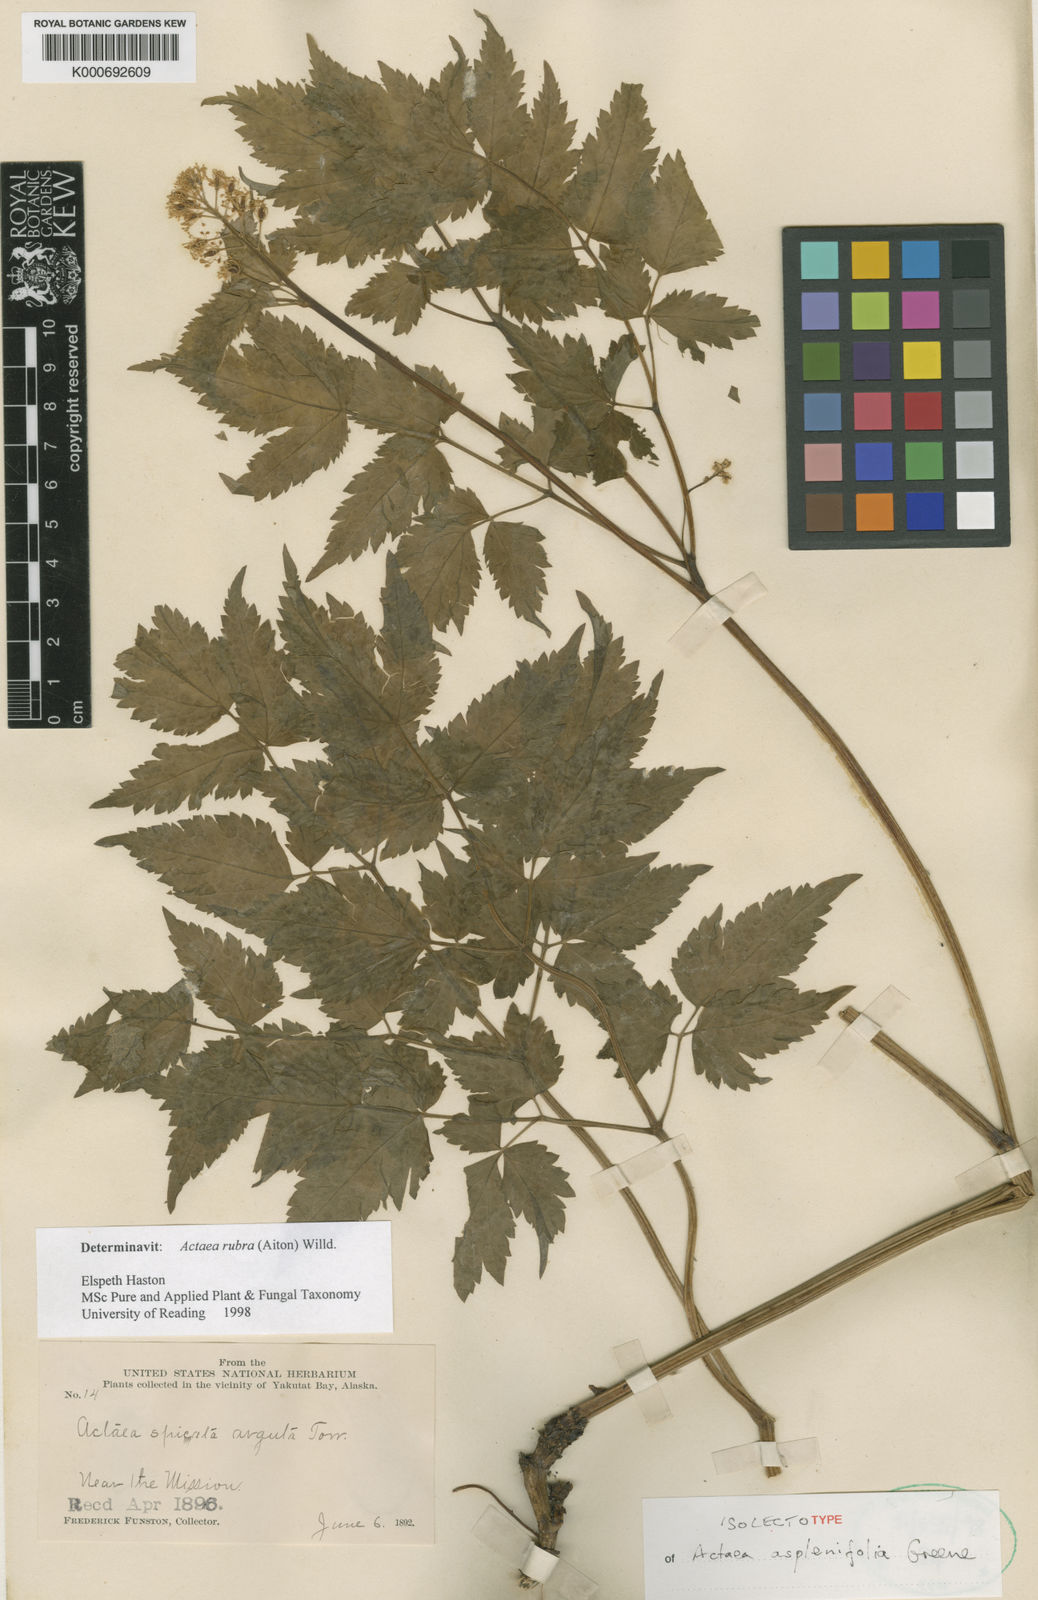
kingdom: Plantae
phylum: Tracheophyta
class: Magnoliopsida
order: Ranunculales
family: Ranunculaceae
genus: Actaea
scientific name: Actaea rubra
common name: Red baneberry
